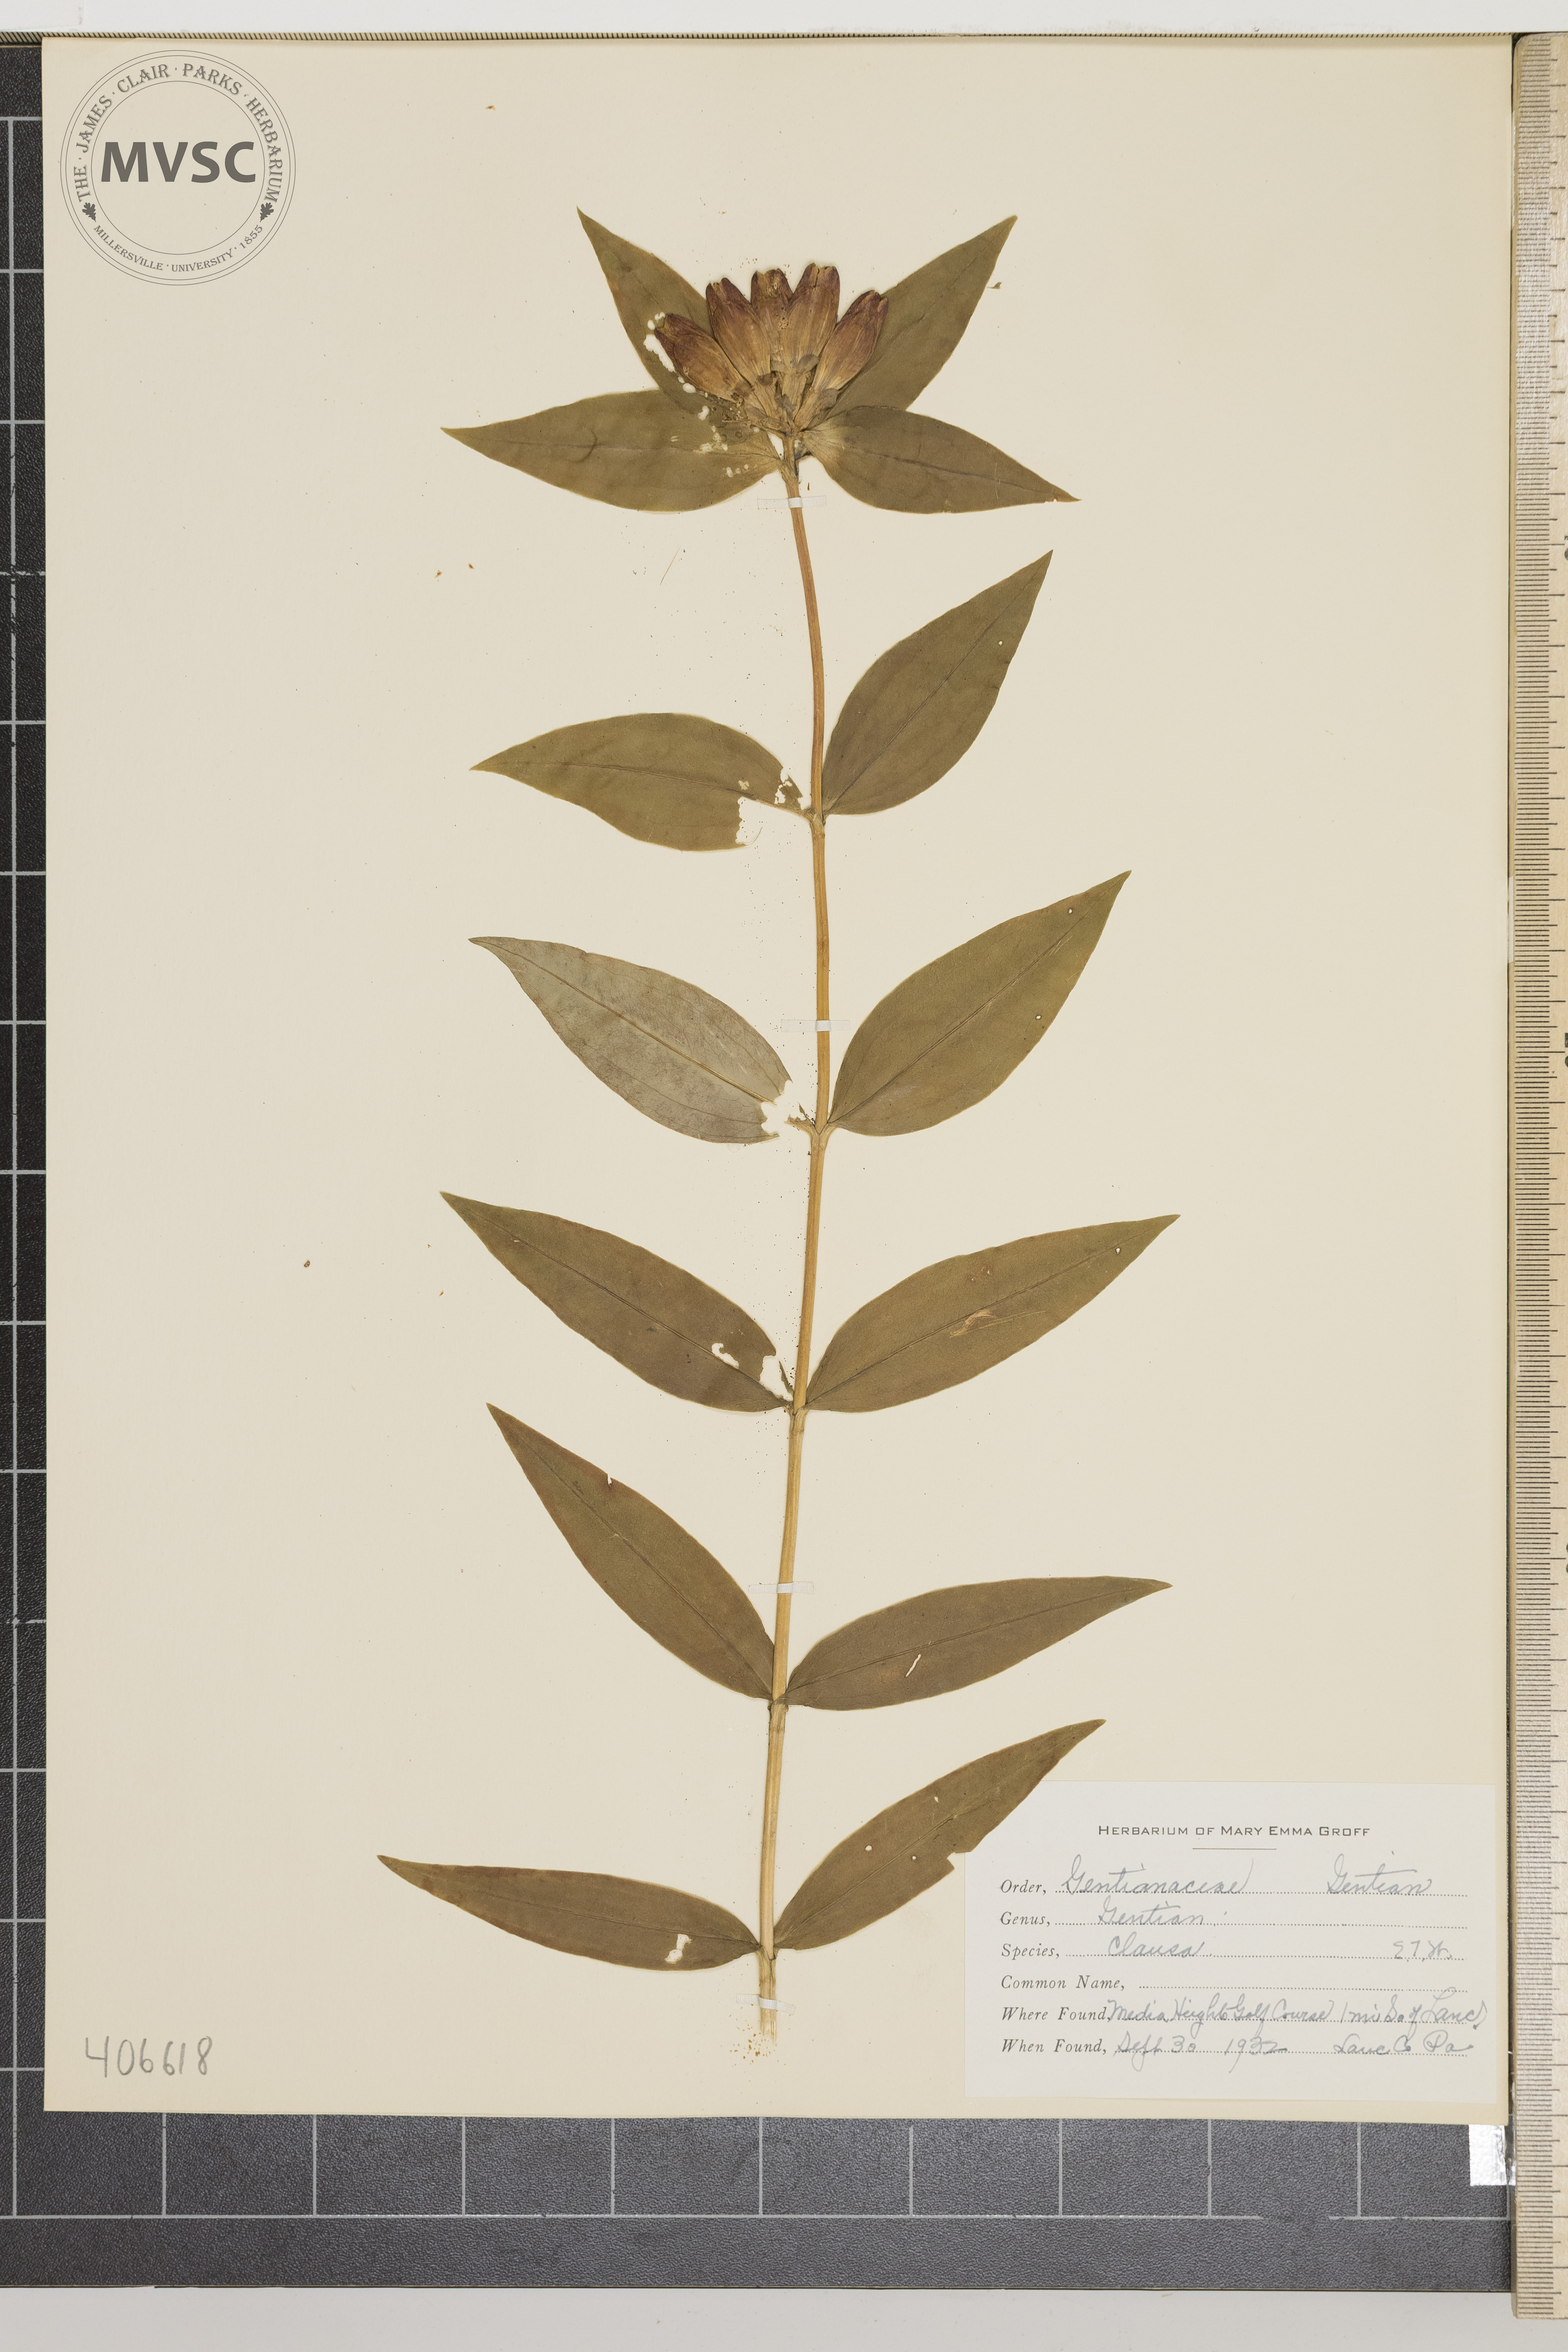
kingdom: Plantae
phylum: Tracheophyta
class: Magnoliopsida
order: Gentianales
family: Gentianaceae
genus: Gentiana
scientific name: Gentiana clausa
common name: Gentian
